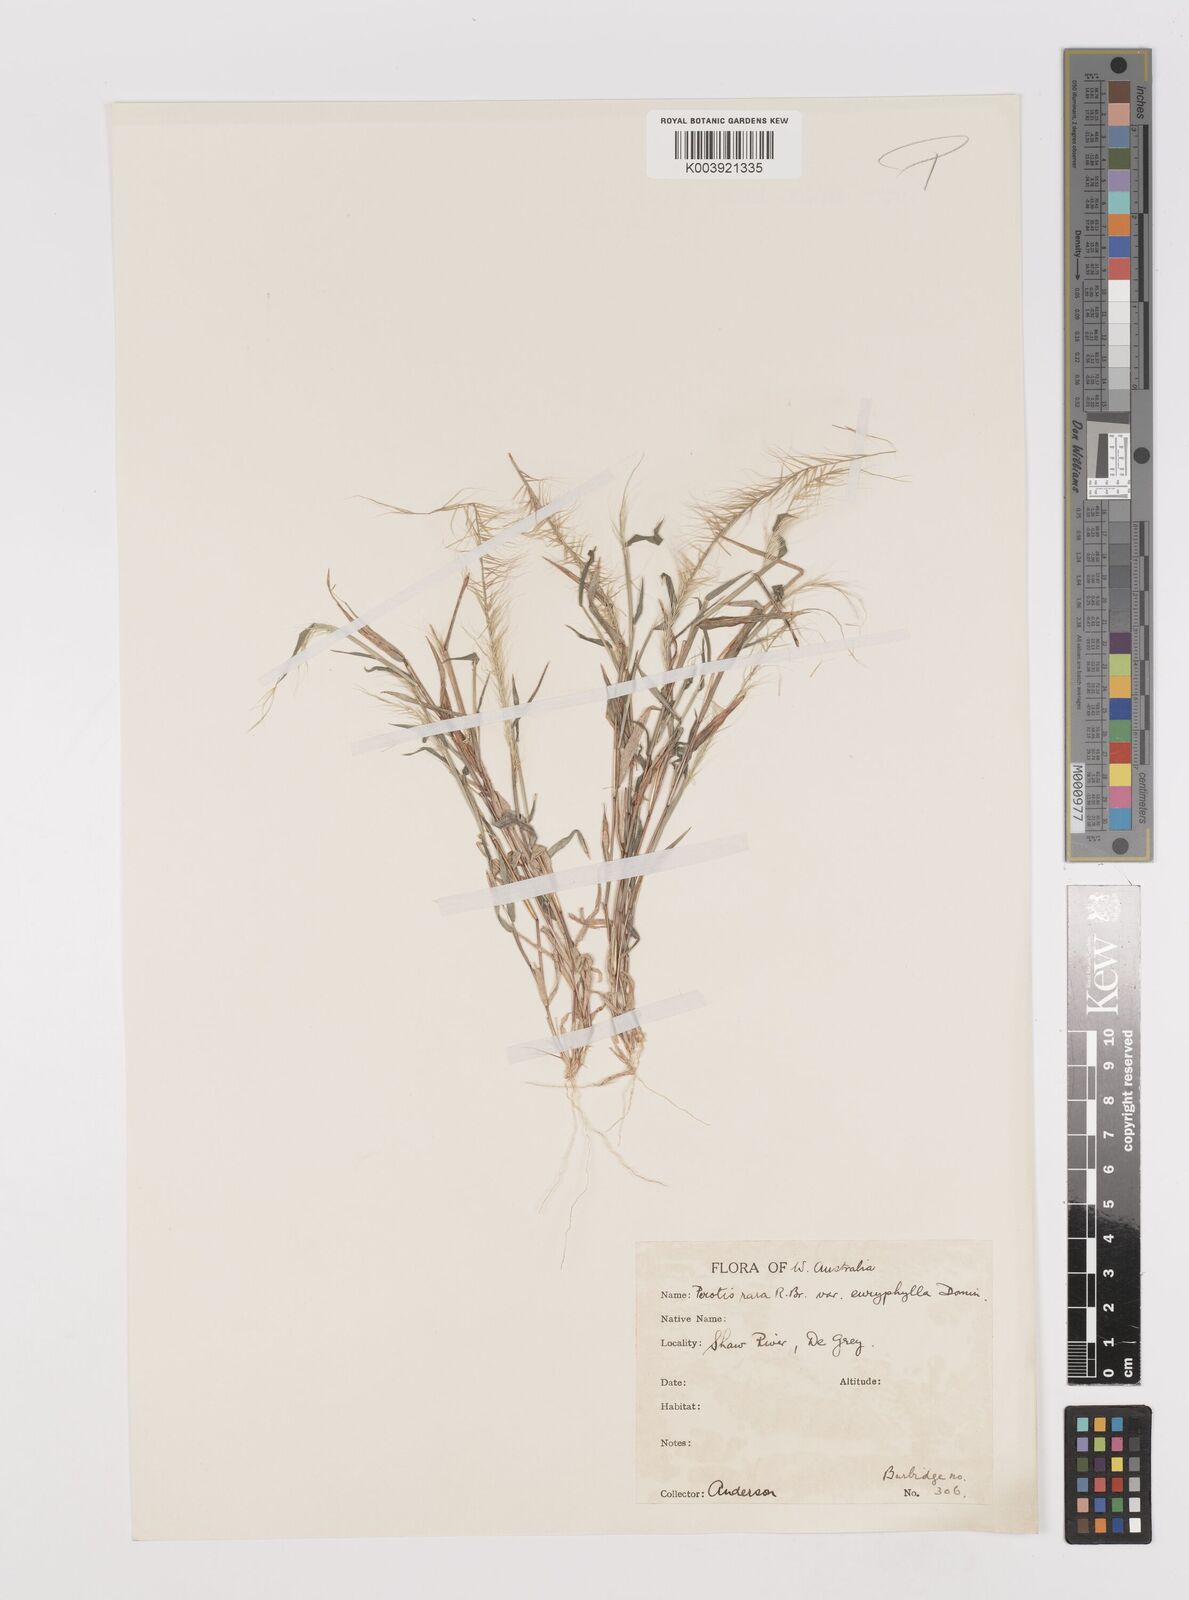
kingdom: Plantae
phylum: Tracheophyta
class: Liliopsida
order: Poales
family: Poaceae
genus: Perotis
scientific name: Perotis rara
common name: Comet grass
